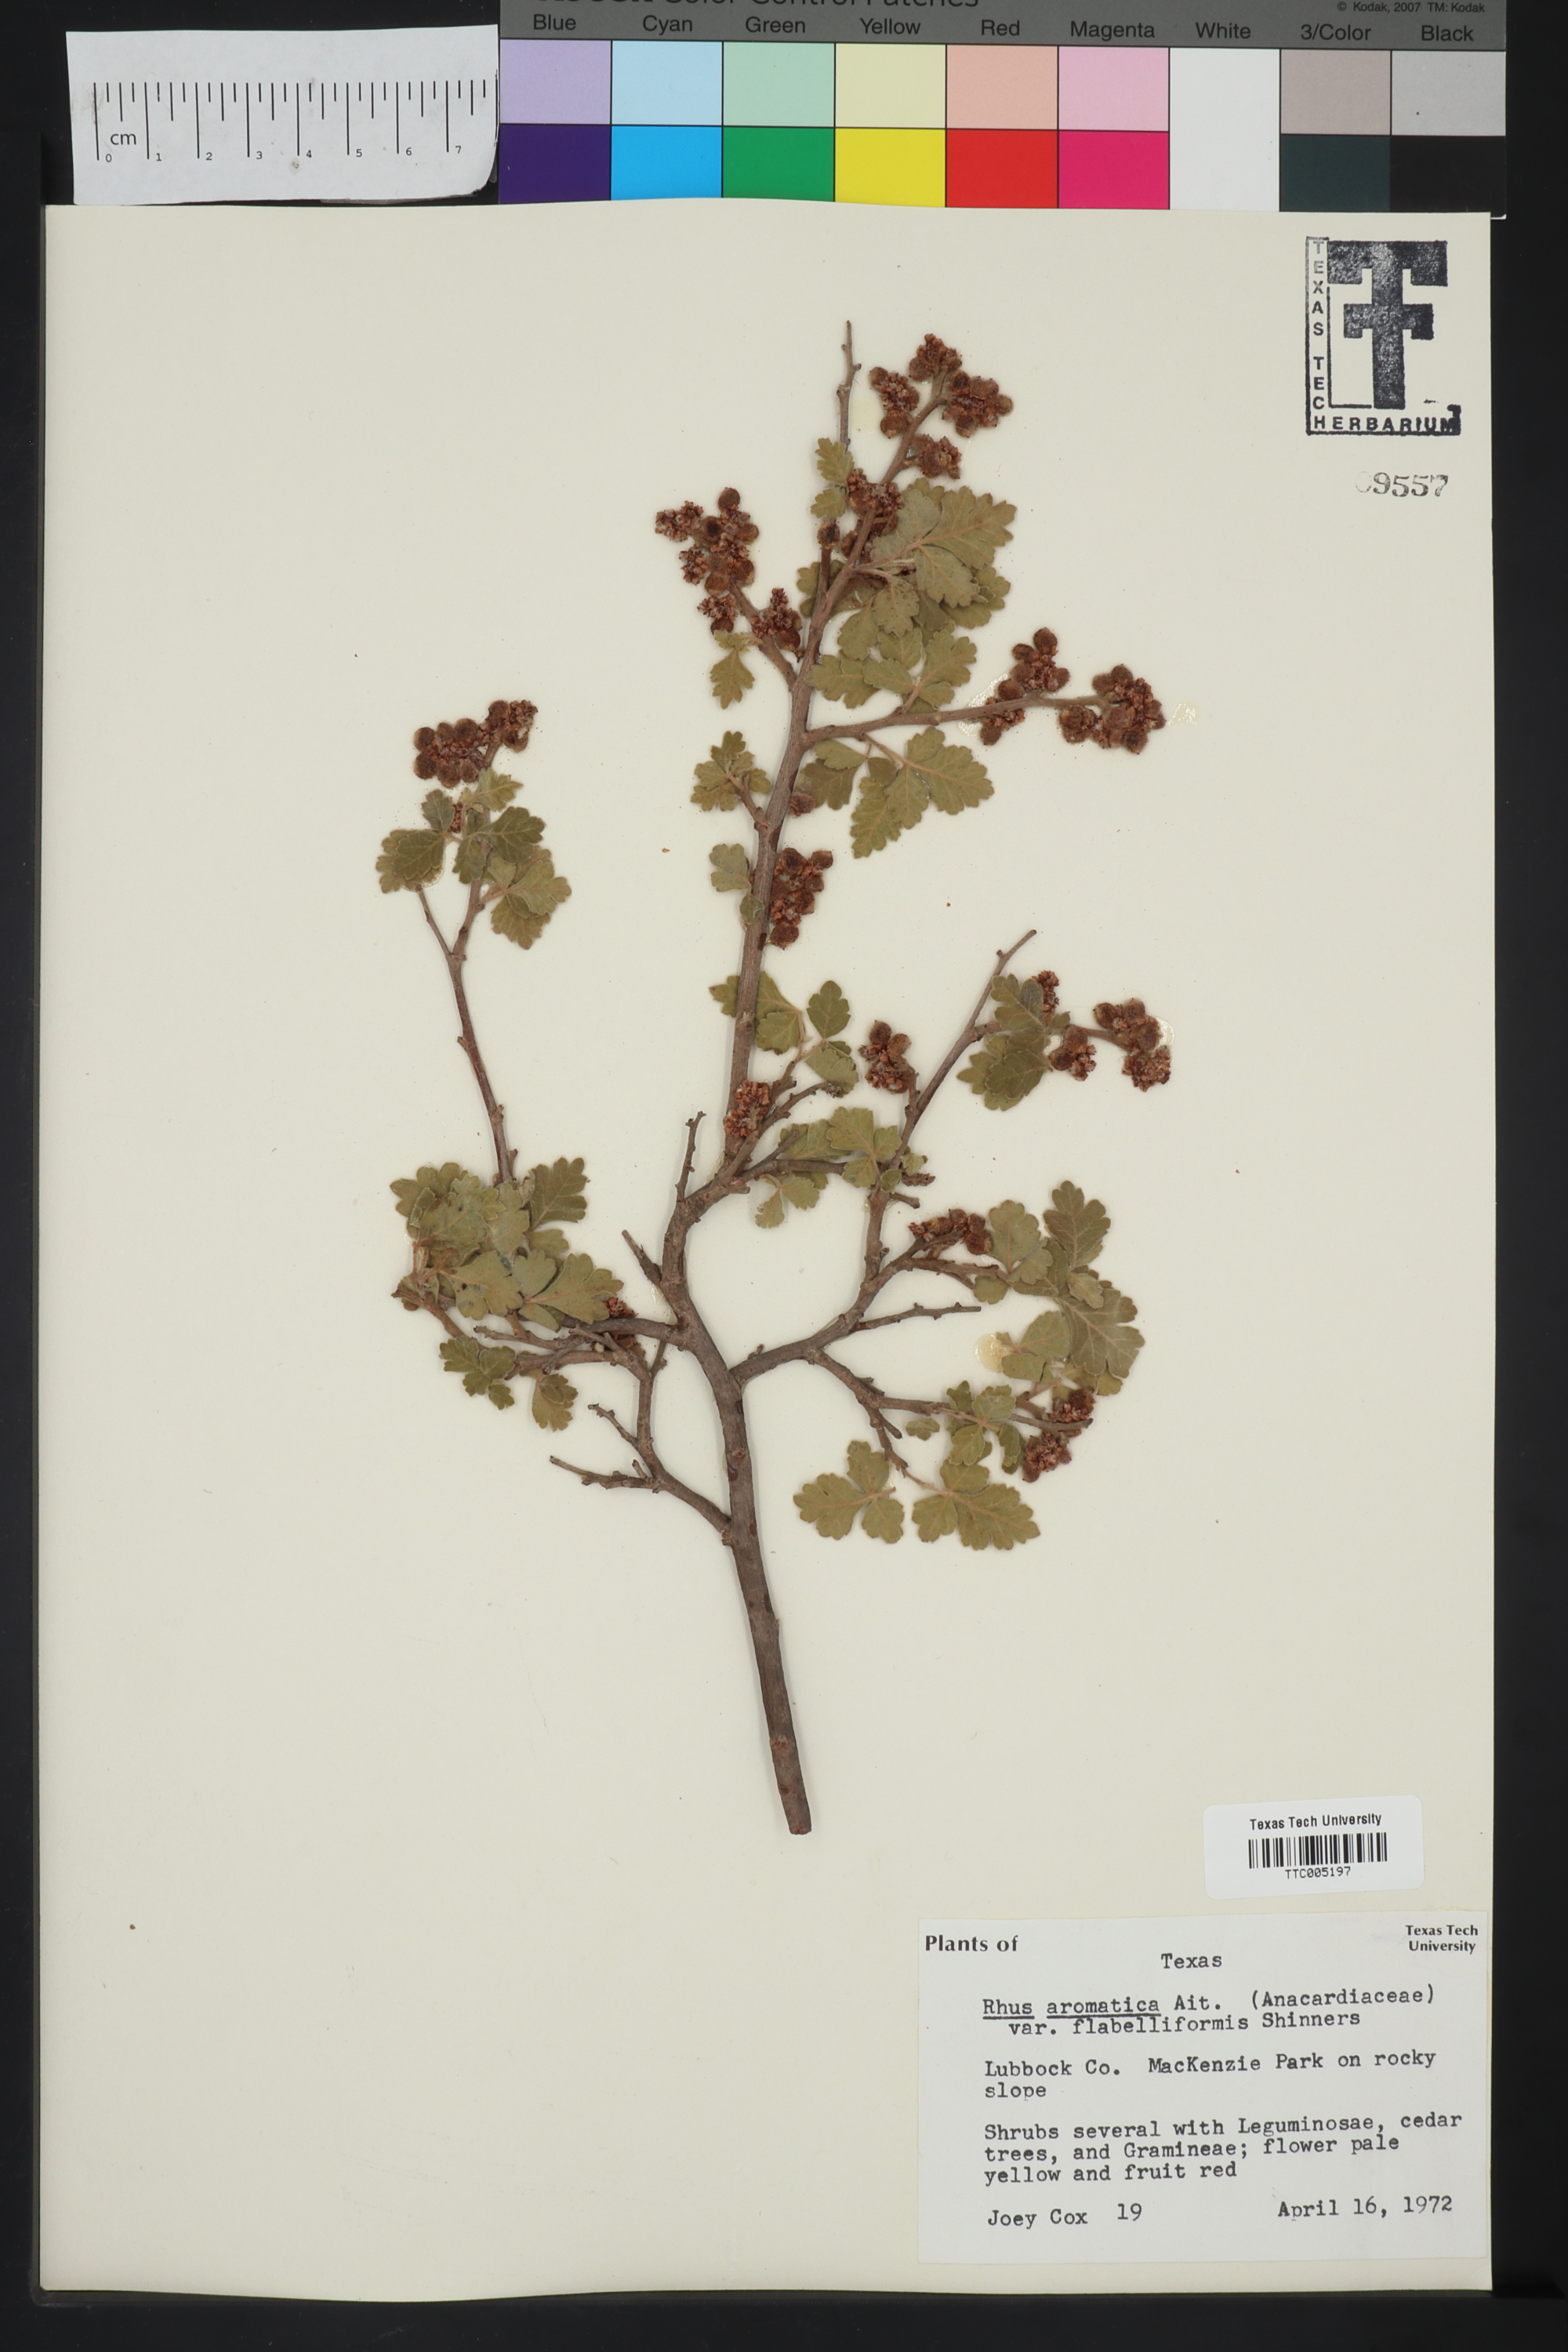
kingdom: Plantae
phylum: Tracheophyta
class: Magnoliopsida
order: Sapindales
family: Anacardiaceae
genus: Rhus
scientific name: Rhus trilobata
